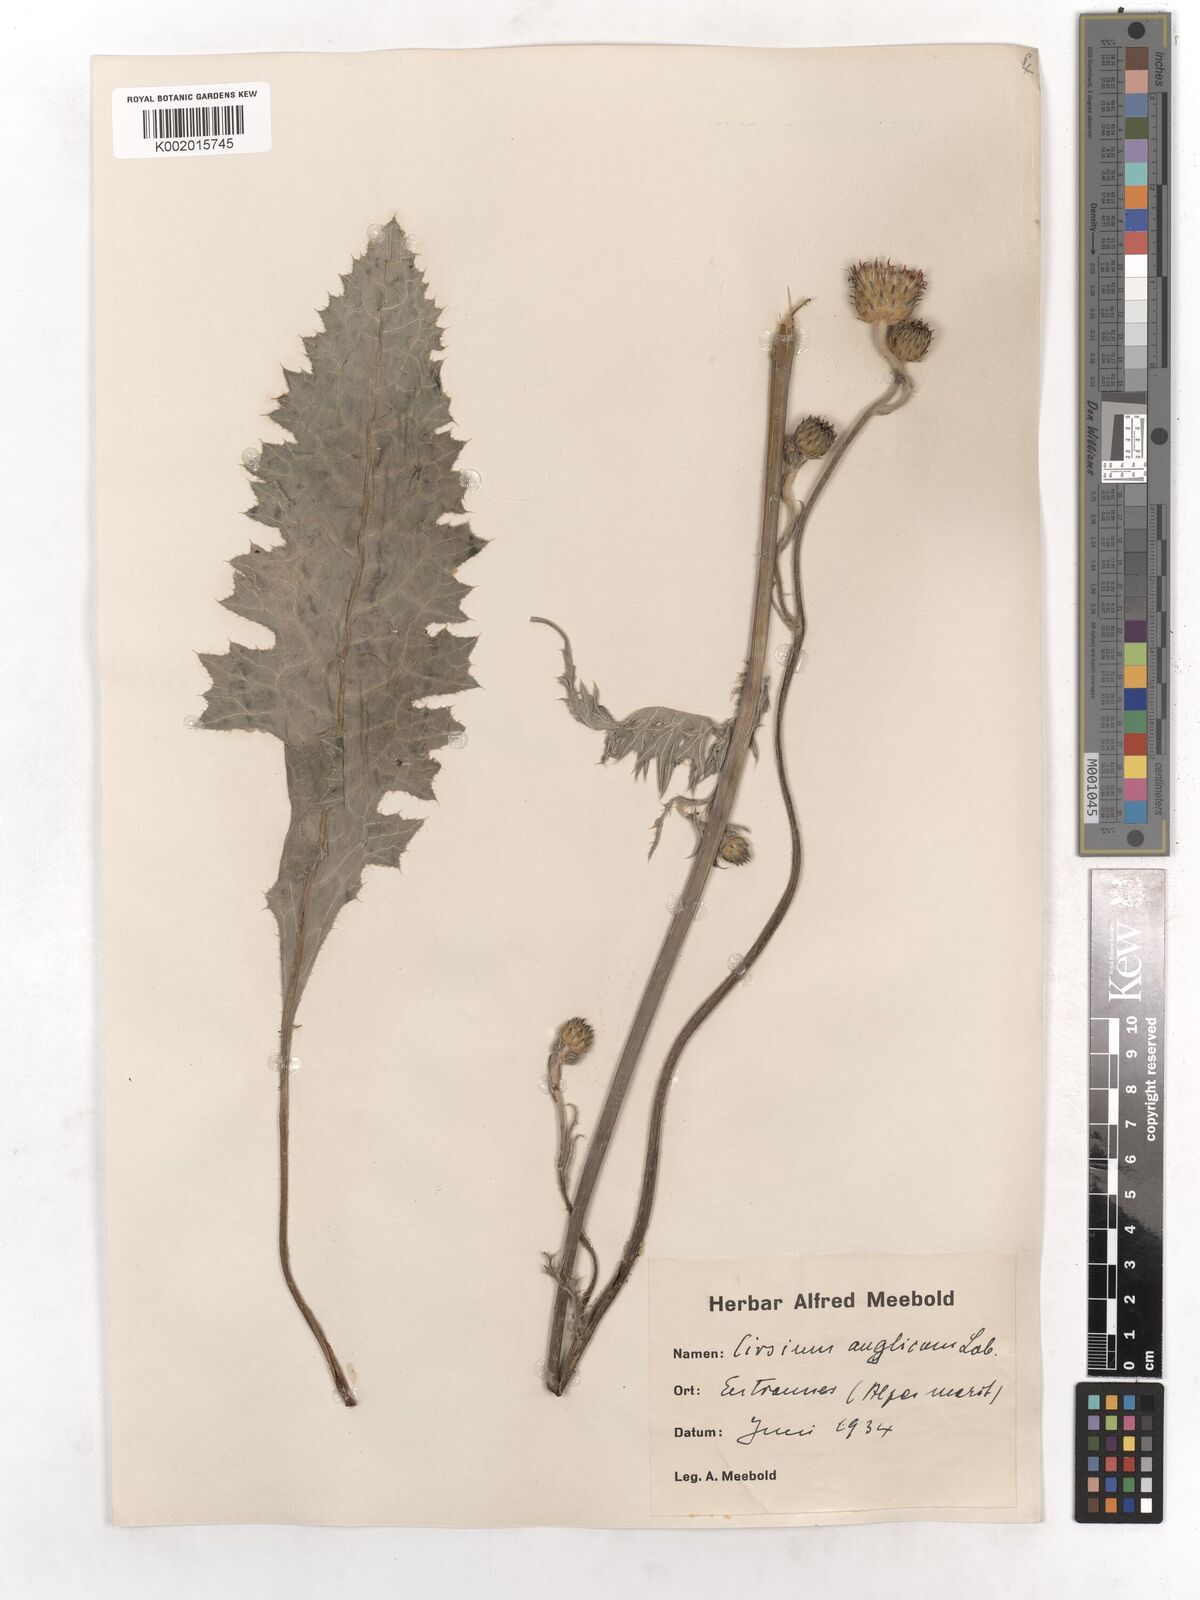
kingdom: Plantae
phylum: Tracheophyta
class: Magnoliopsida
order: Asterales
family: Asteraceae
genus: Cirsium
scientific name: Cirsium dissectum
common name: Meadow thistle
